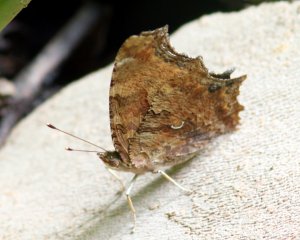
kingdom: Animalia
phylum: Arthropoda
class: Insecta
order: Lepidoptera
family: Nymphalidae
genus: Polygonia
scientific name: Polygonia comma
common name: Eastern Comma
